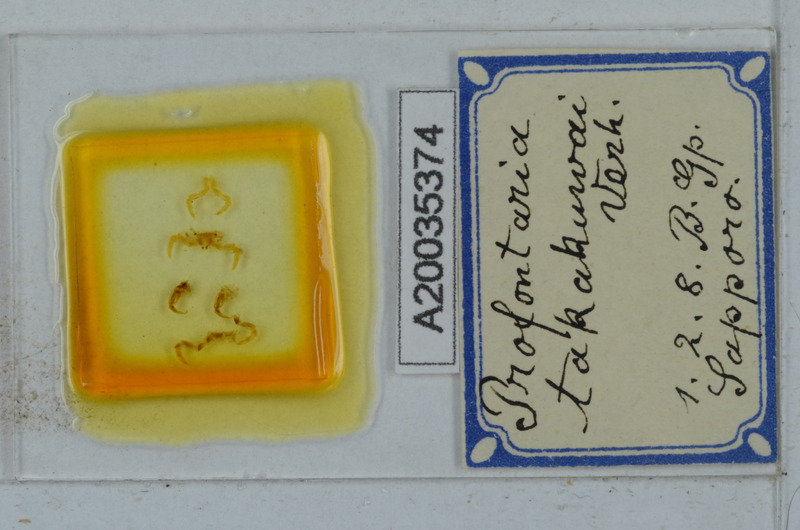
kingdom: Animalia
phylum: Arthropoda
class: Diplopoda
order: Polydesmida
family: Xystodesmidae
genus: Parafontaria
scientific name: Parafontaria takakuwai
